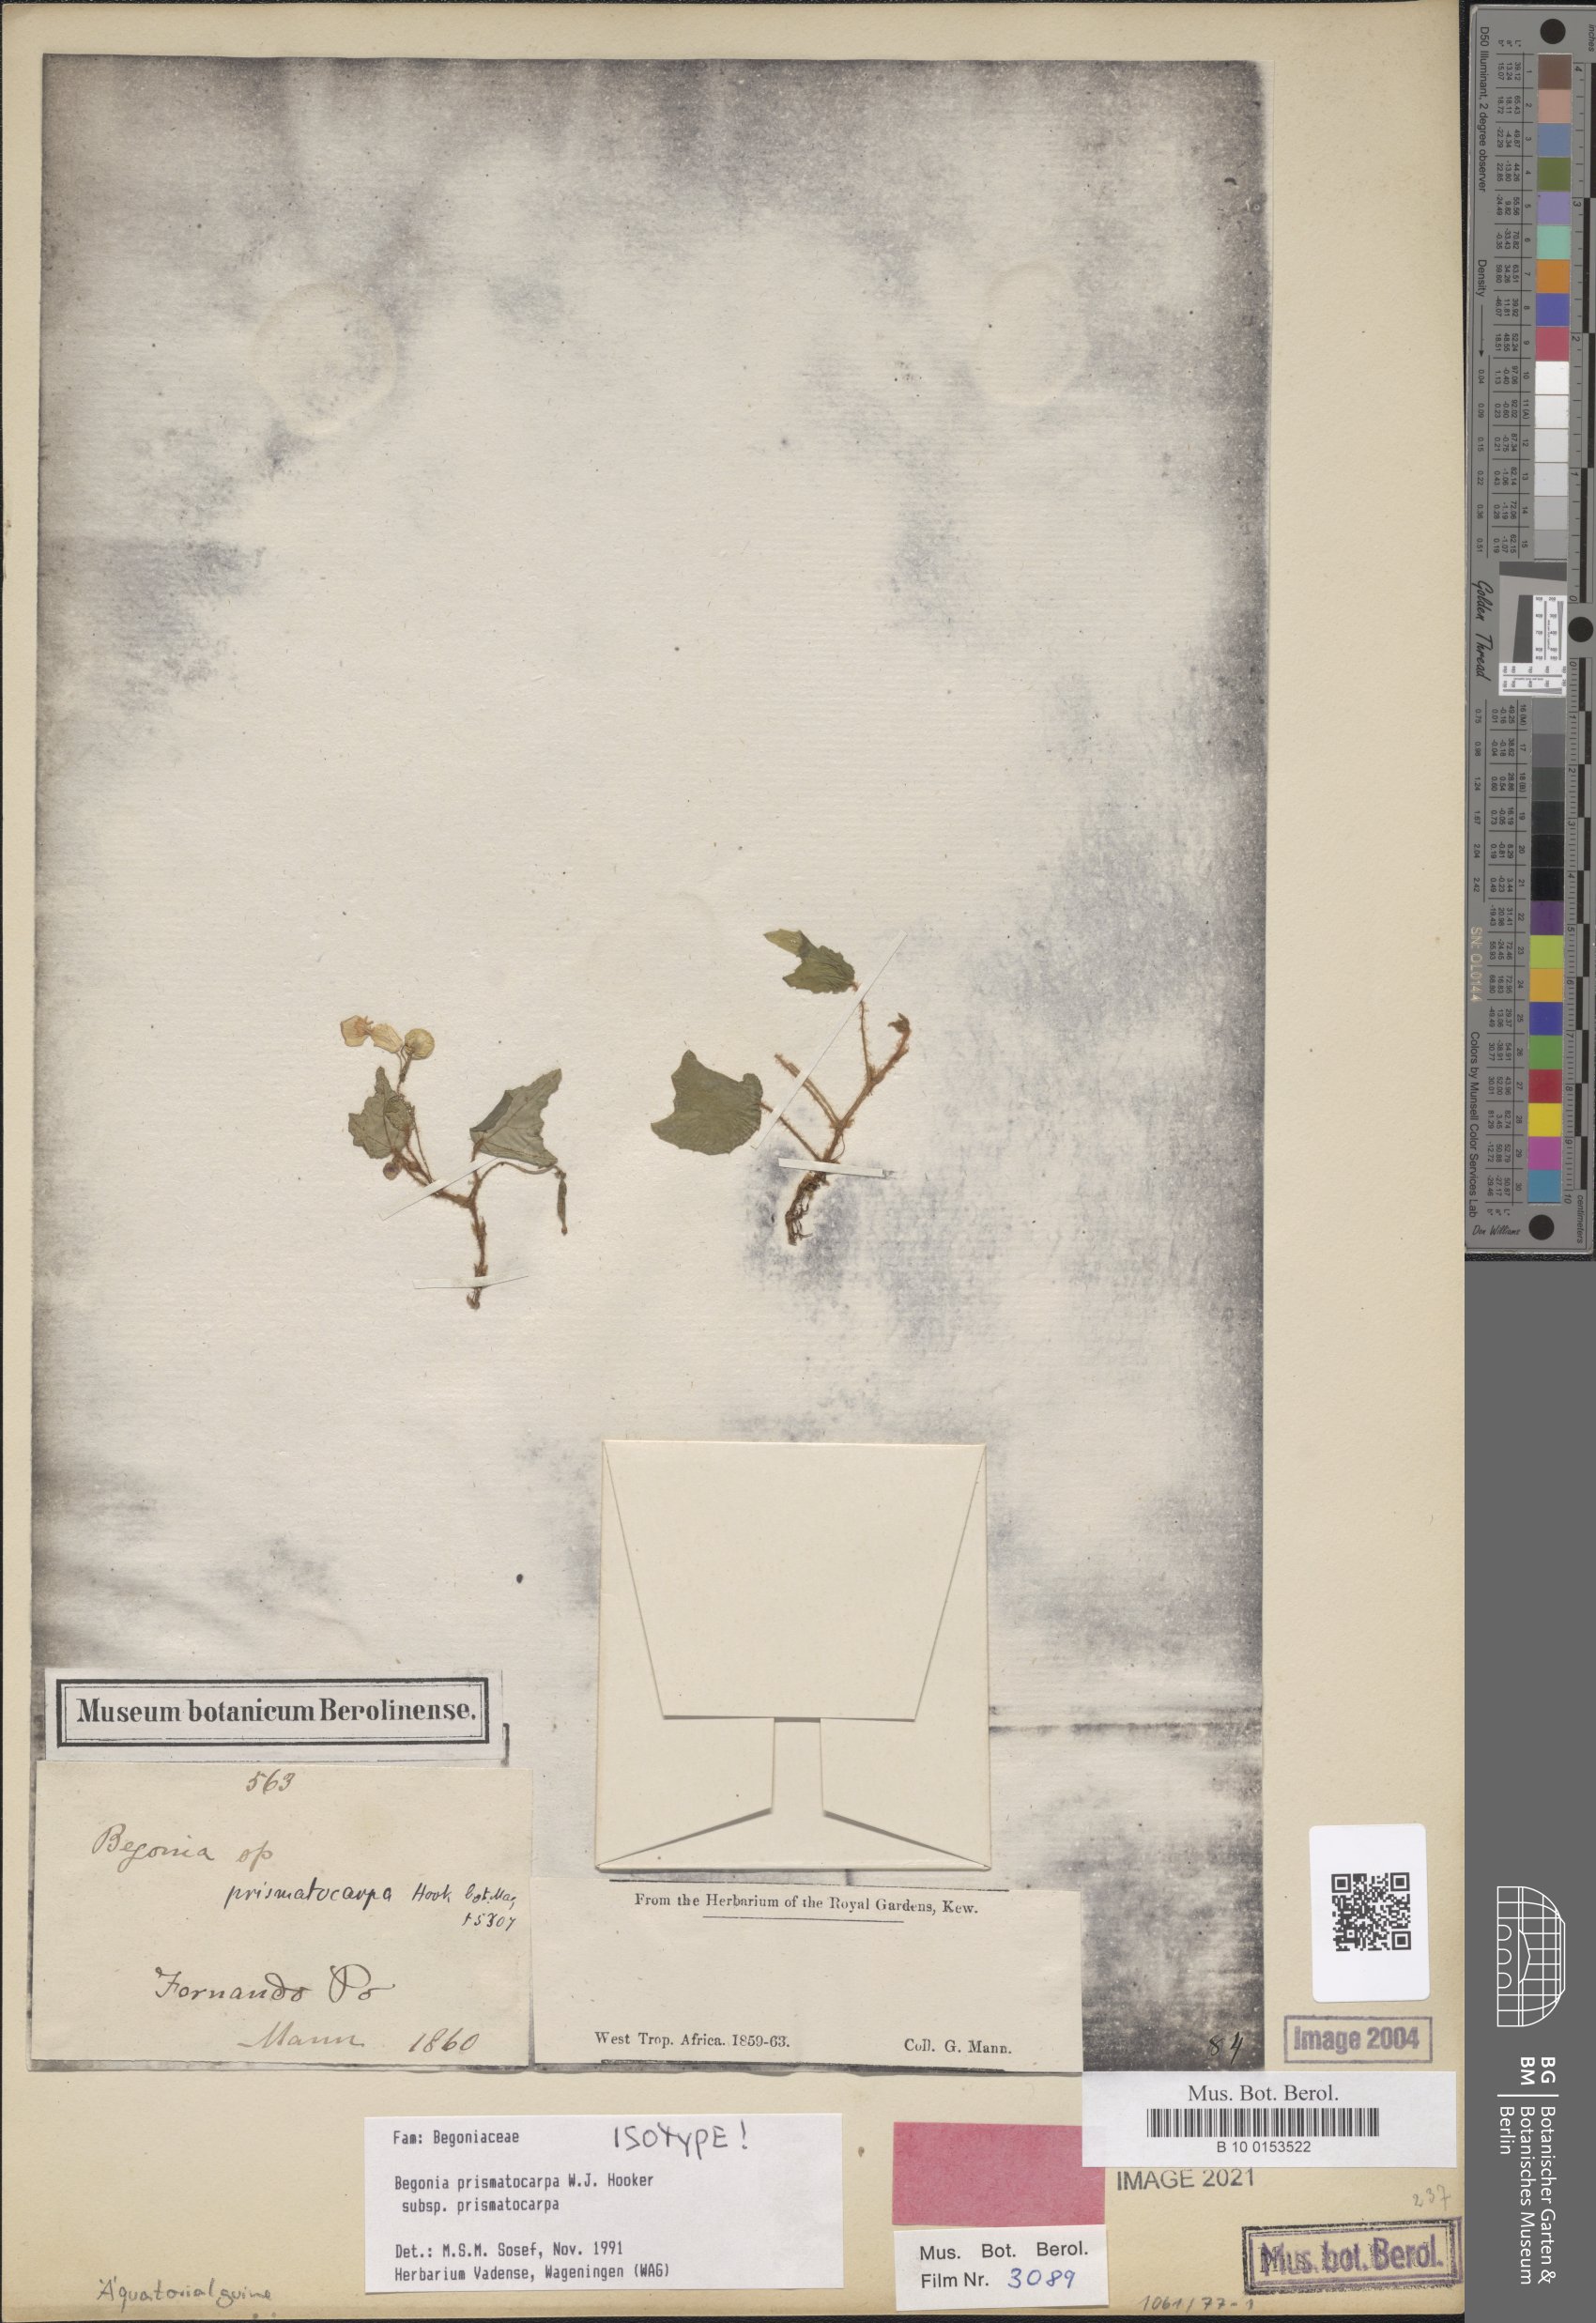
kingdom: Plantae
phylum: Tracheophyta
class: Magnoliopsida
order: Cucurbitales
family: Begoniaceae
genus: Begonia
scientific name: Begonia prismatocarpa
